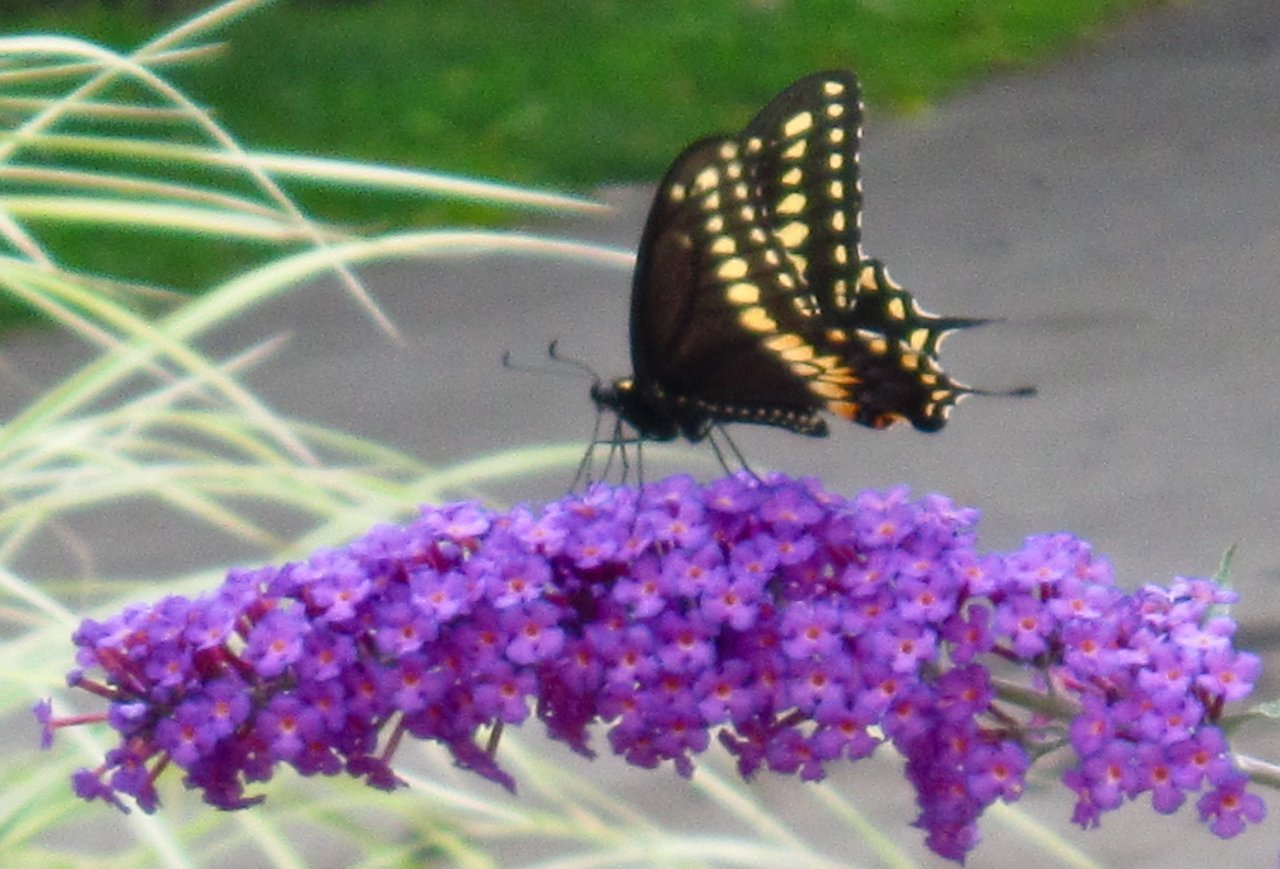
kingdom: Animalia
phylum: Arthropoda
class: Insecta
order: Lepidoptera
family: Papilionidae
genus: Papilio
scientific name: Papilio polyxenes
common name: Black Swallowtail
